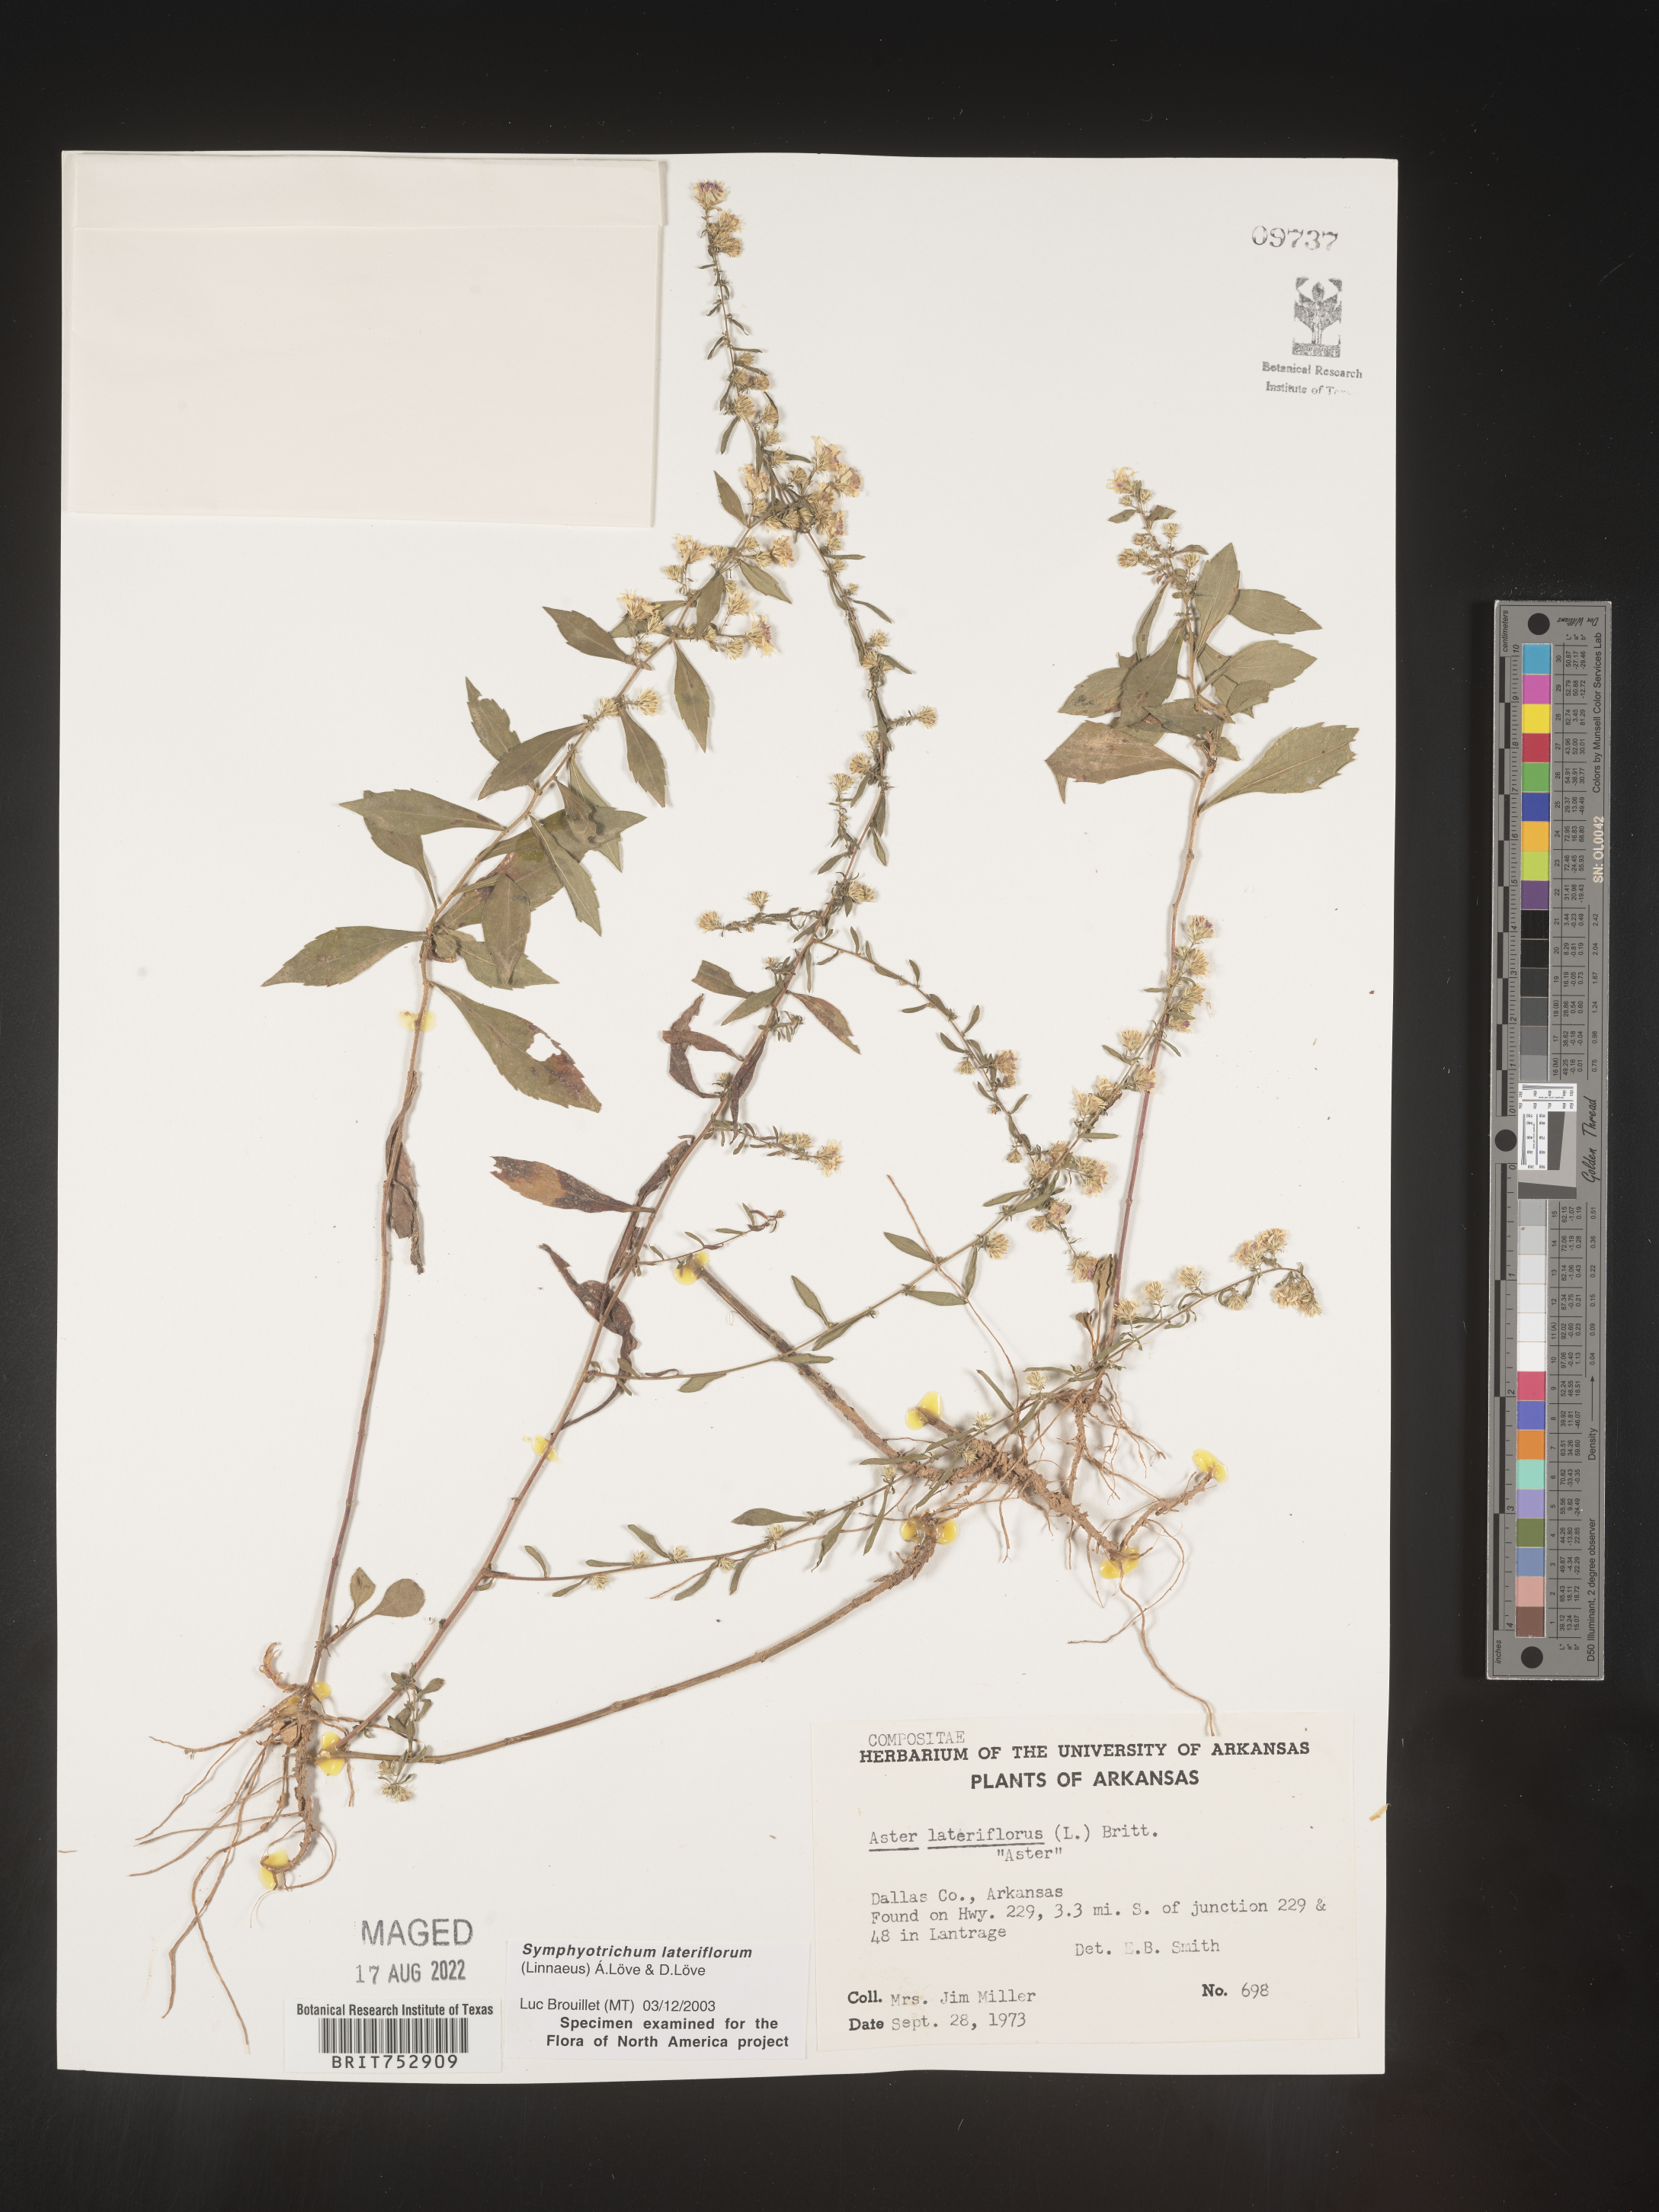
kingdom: Plantae
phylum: Tracheophyta
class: Magnoliopsida
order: Asterales
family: Asteraceae
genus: Symphyotrichum
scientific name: Symphyotrichum lateriflorum
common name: Calico aster
